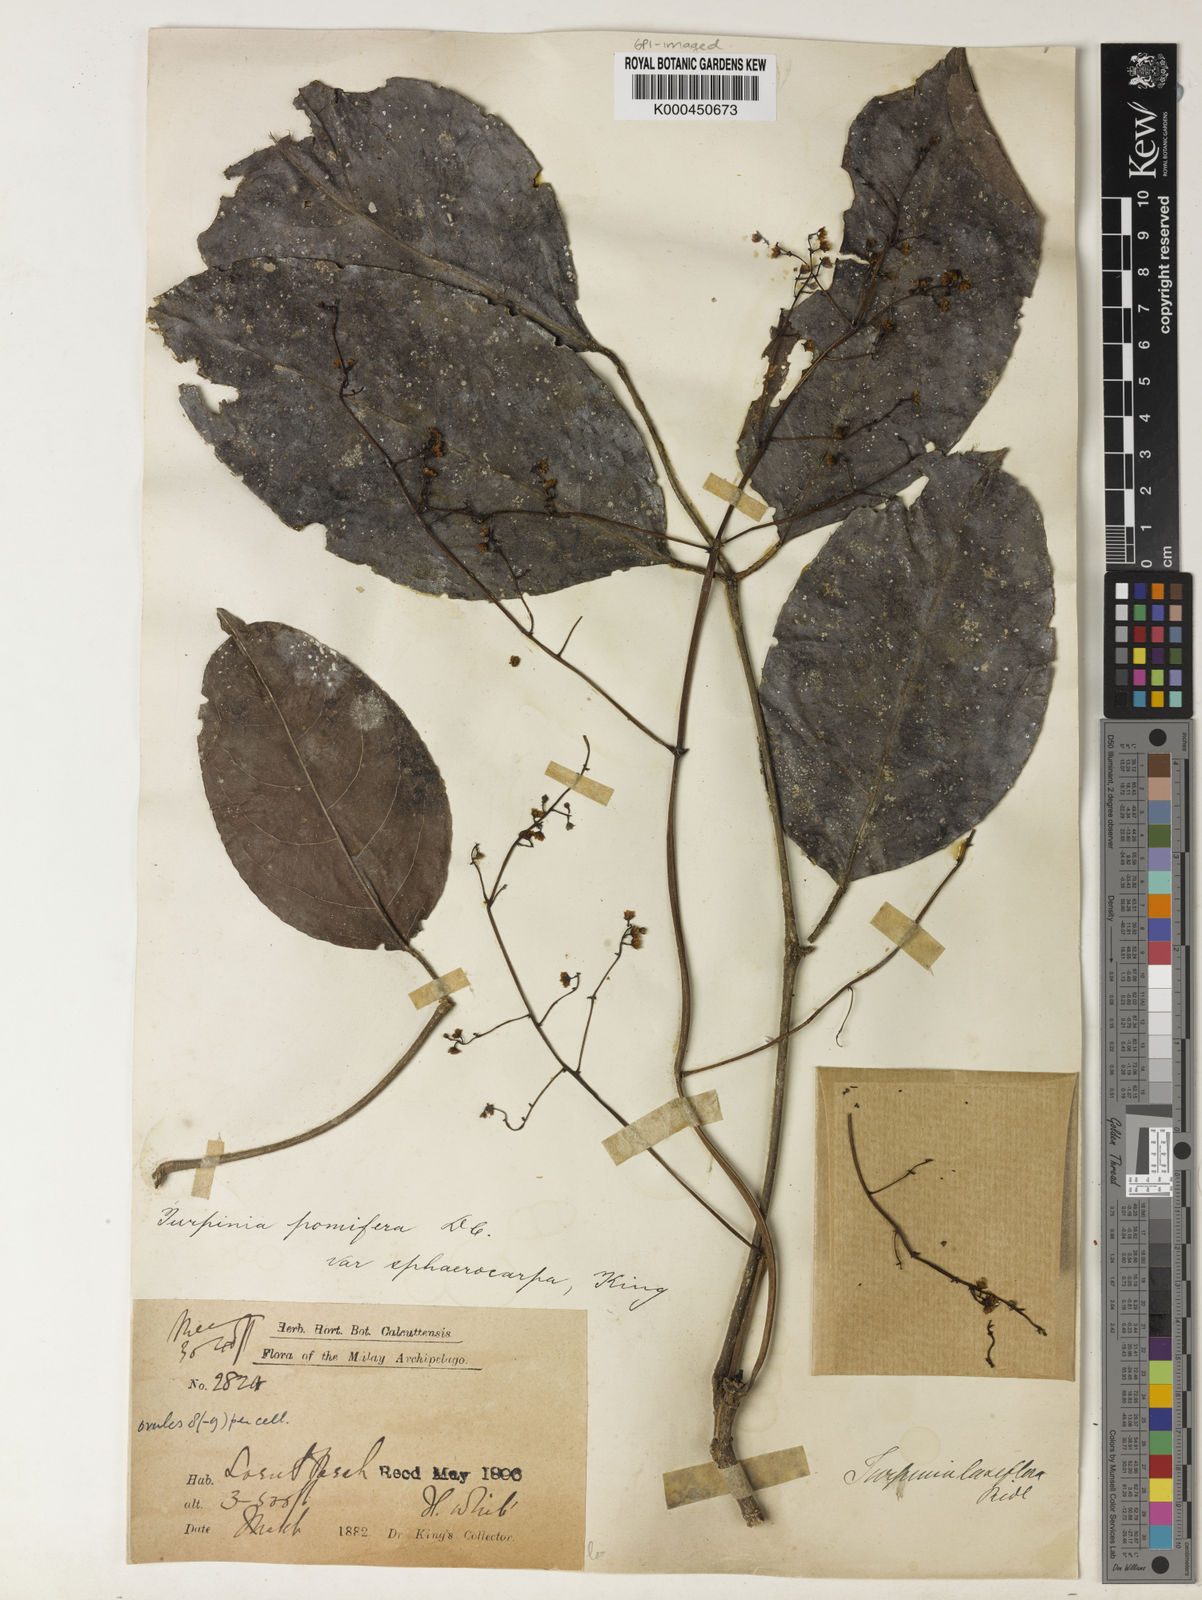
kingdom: Plantae
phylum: Tracheophyta
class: Magnoliopsida
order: Crossosomatales
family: Staphyleaceae
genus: Dalrympelea
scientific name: Dalrympelea sphaerocarpa
